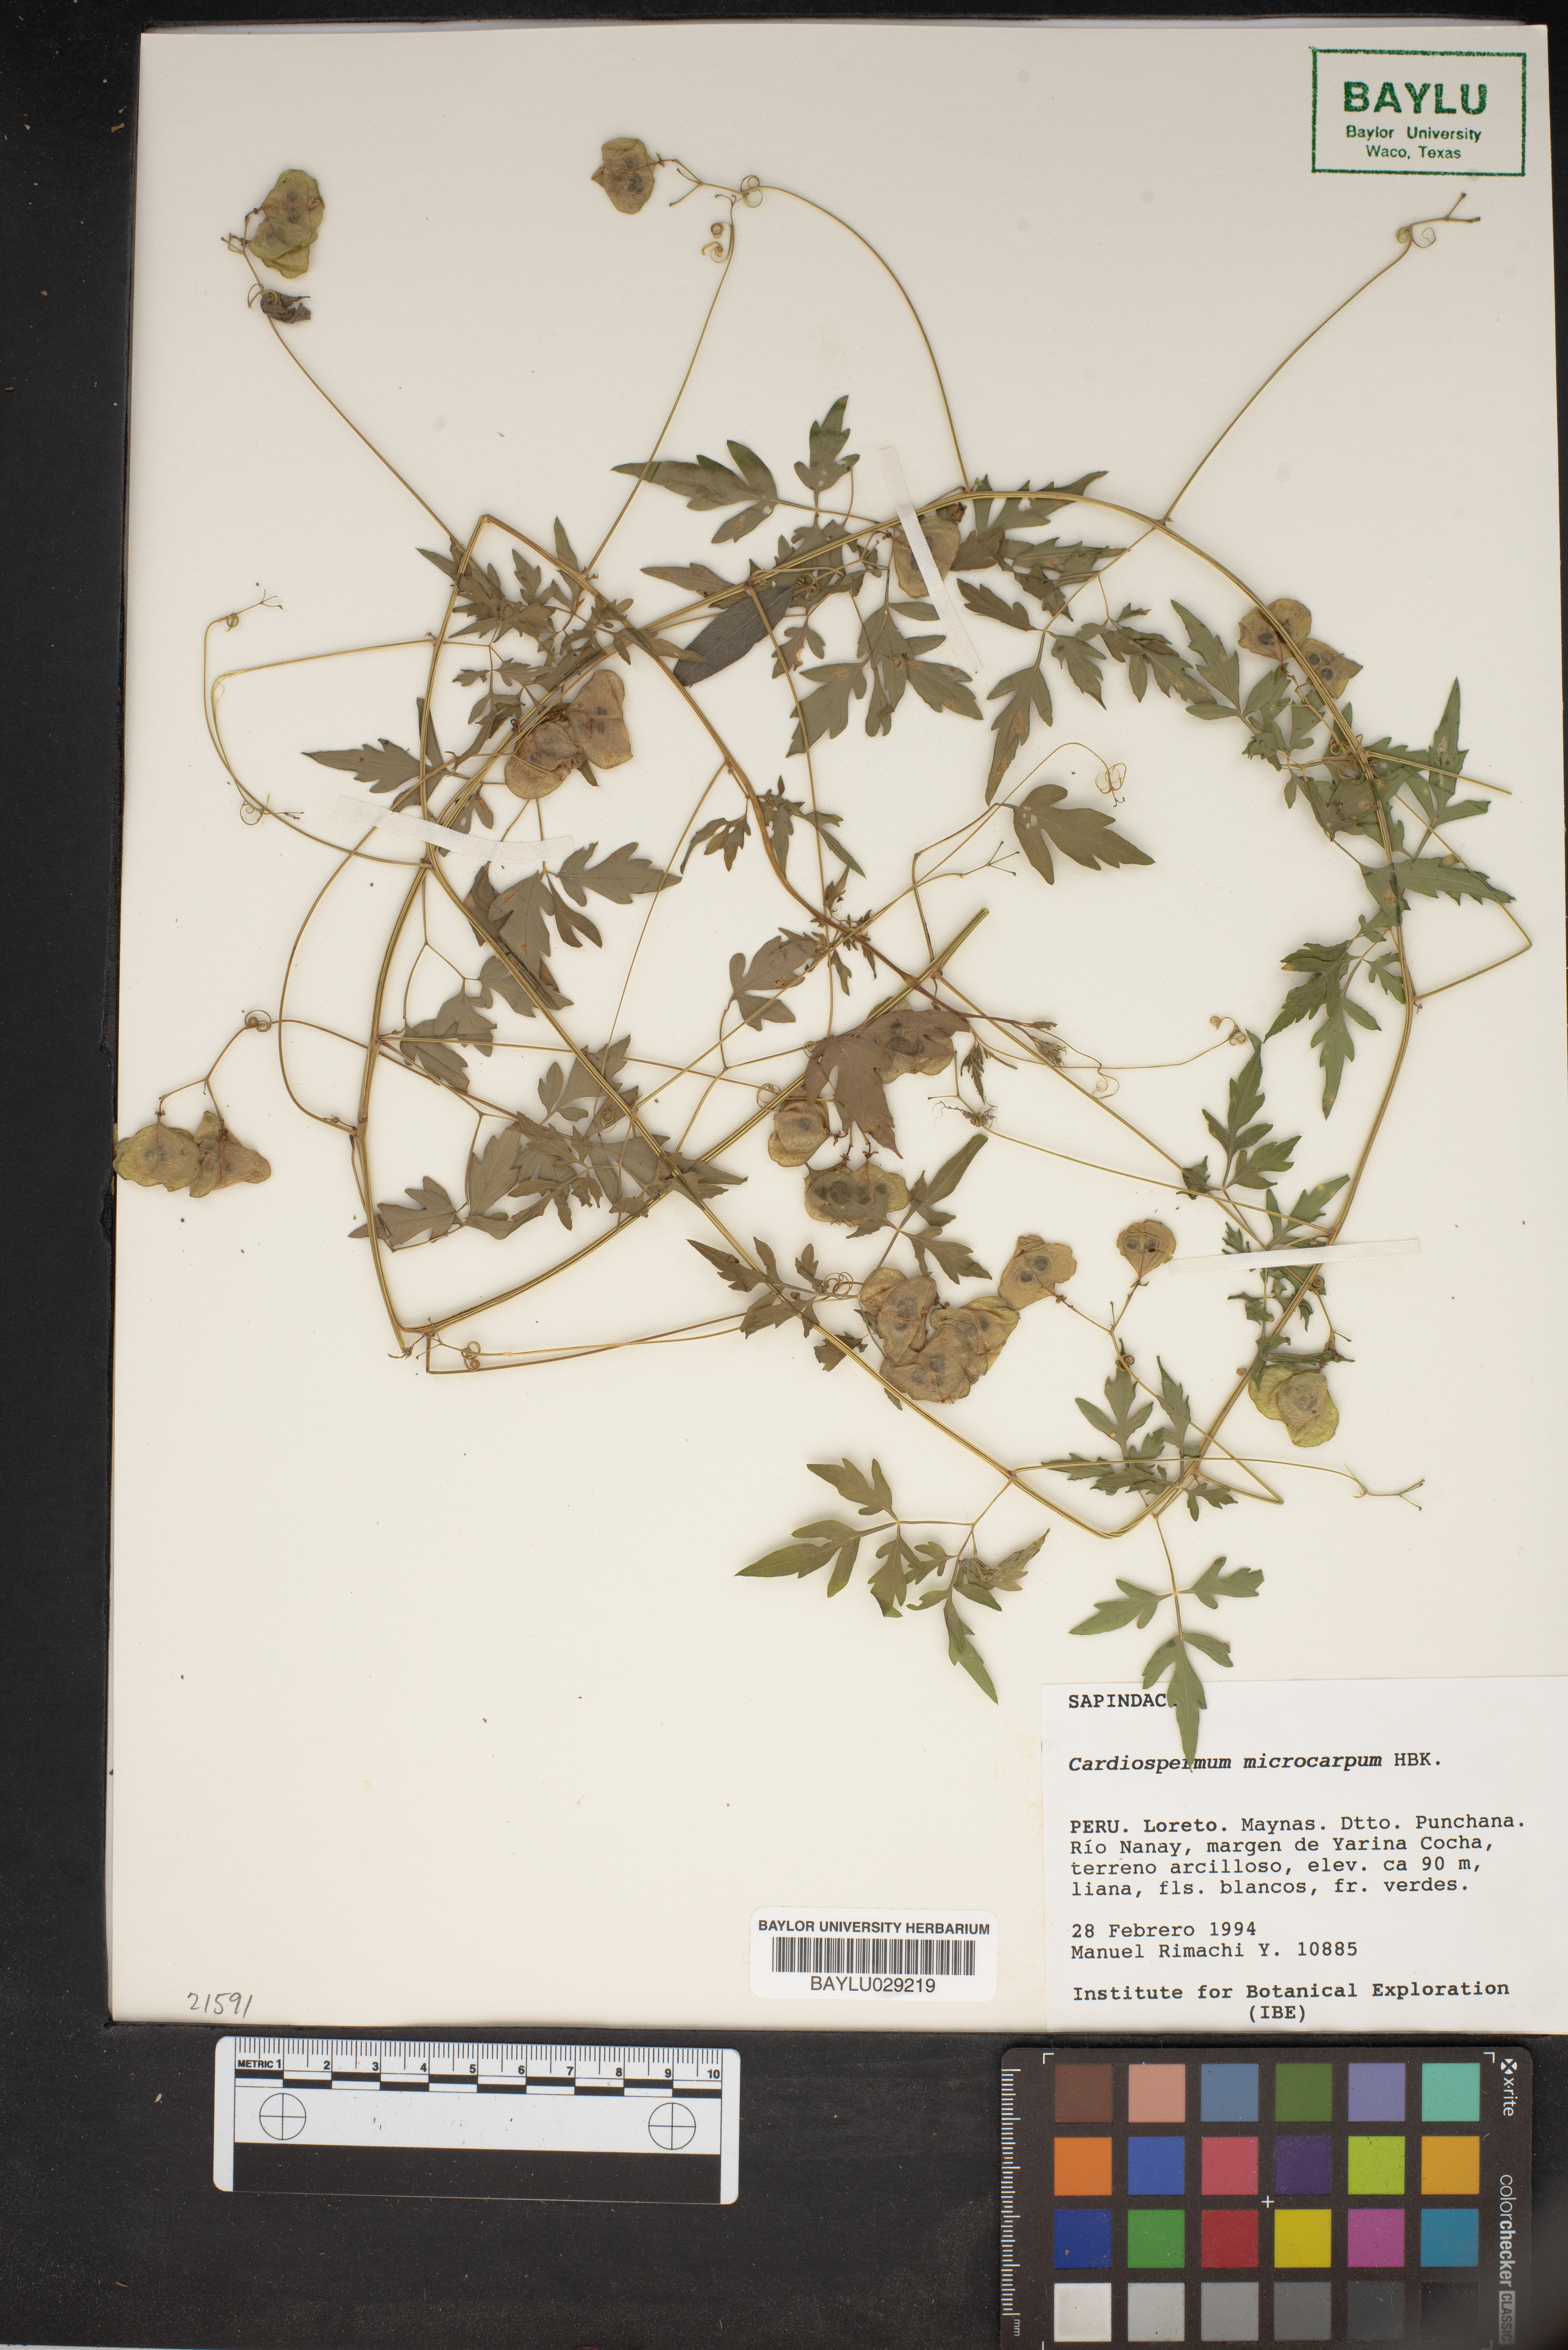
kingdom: Plantae
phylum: Tracheophyta
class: Magnoliopsida
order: Sapindales
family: Sapindaceae
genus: Cardiospermum
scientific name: Cardiospermum microcarpum
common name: Heart seed
